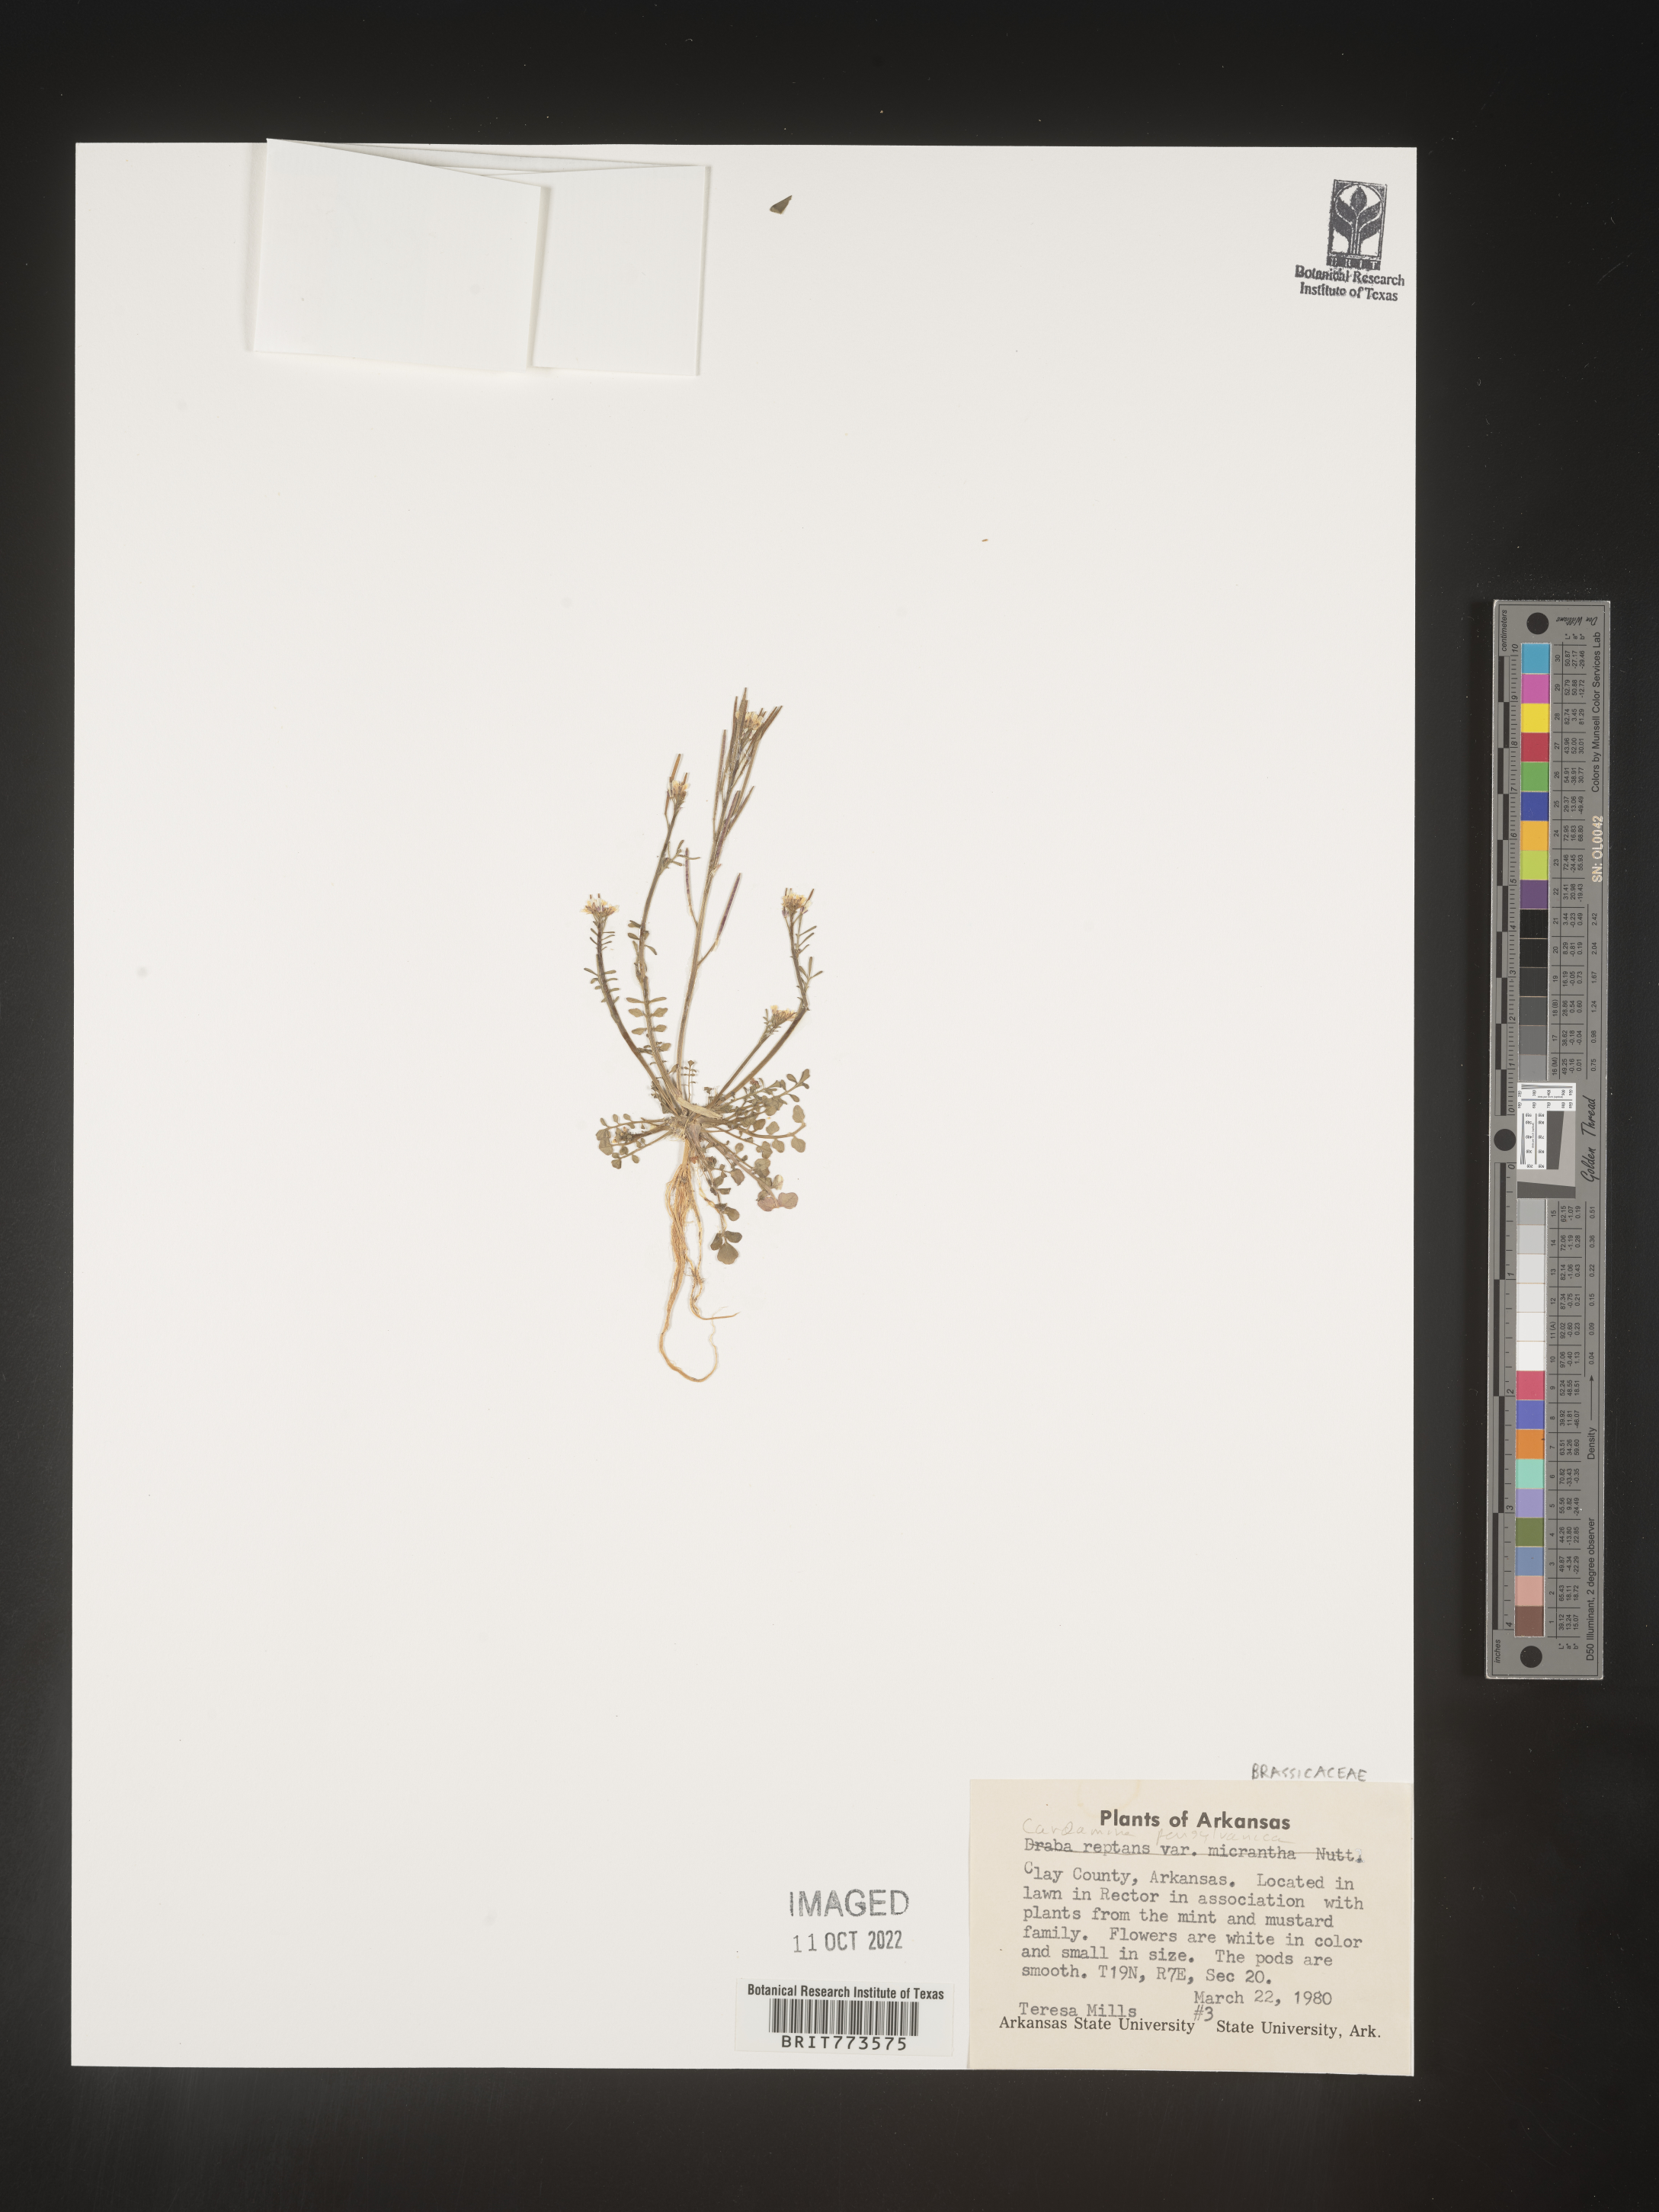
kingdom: Plantae
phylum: Tracheophyta
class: Magnoliopsida
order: Brassicales
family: Brassicaceae
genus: Cardamine
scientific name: Cardamine parviflora
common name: Sand bittercress
